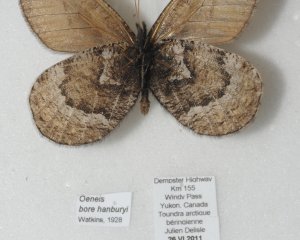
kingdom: Animalia
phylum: Arthropoda
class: Insecta
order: Lepidoptera
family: Nymphalidae
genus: Oeneis
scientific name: Oeneis bore
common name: White-veined Arctic
